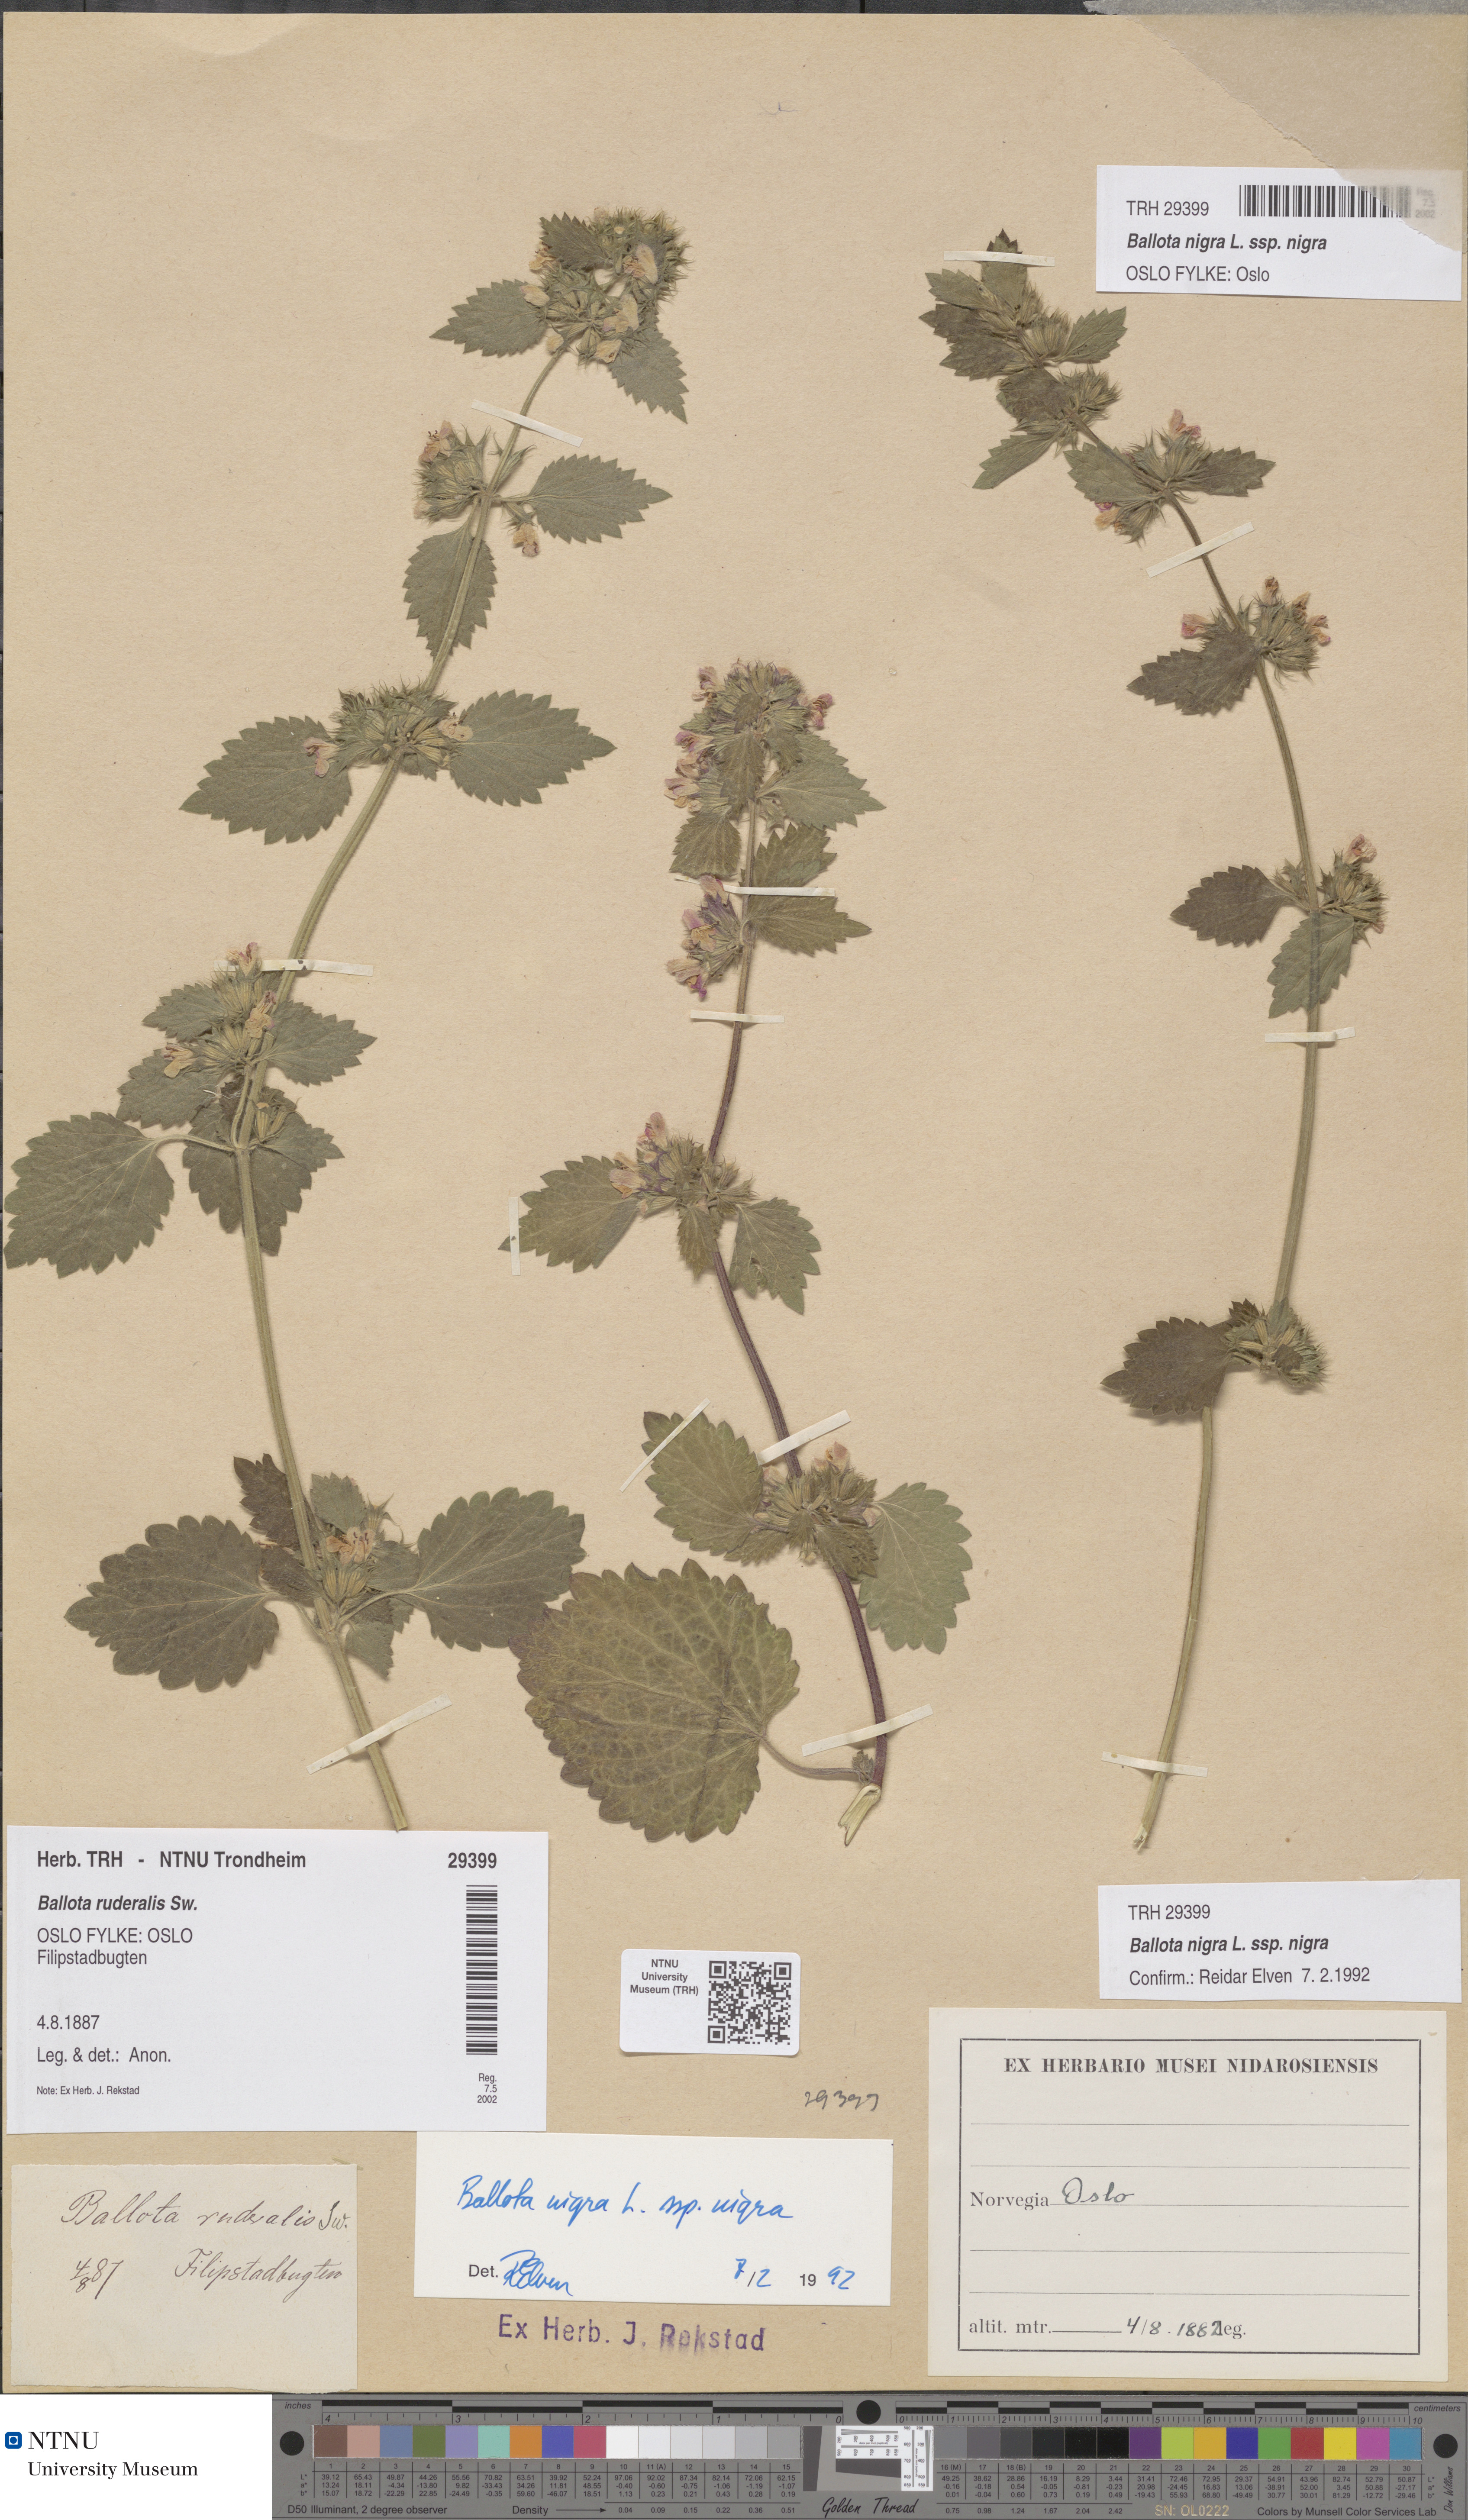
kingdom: Plantae
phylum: Tracheophyta
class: Magnoliopsida
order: Lamiales
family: Lamiaceae
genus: Ballota
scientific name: Ballota nigra
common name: Black horehound
